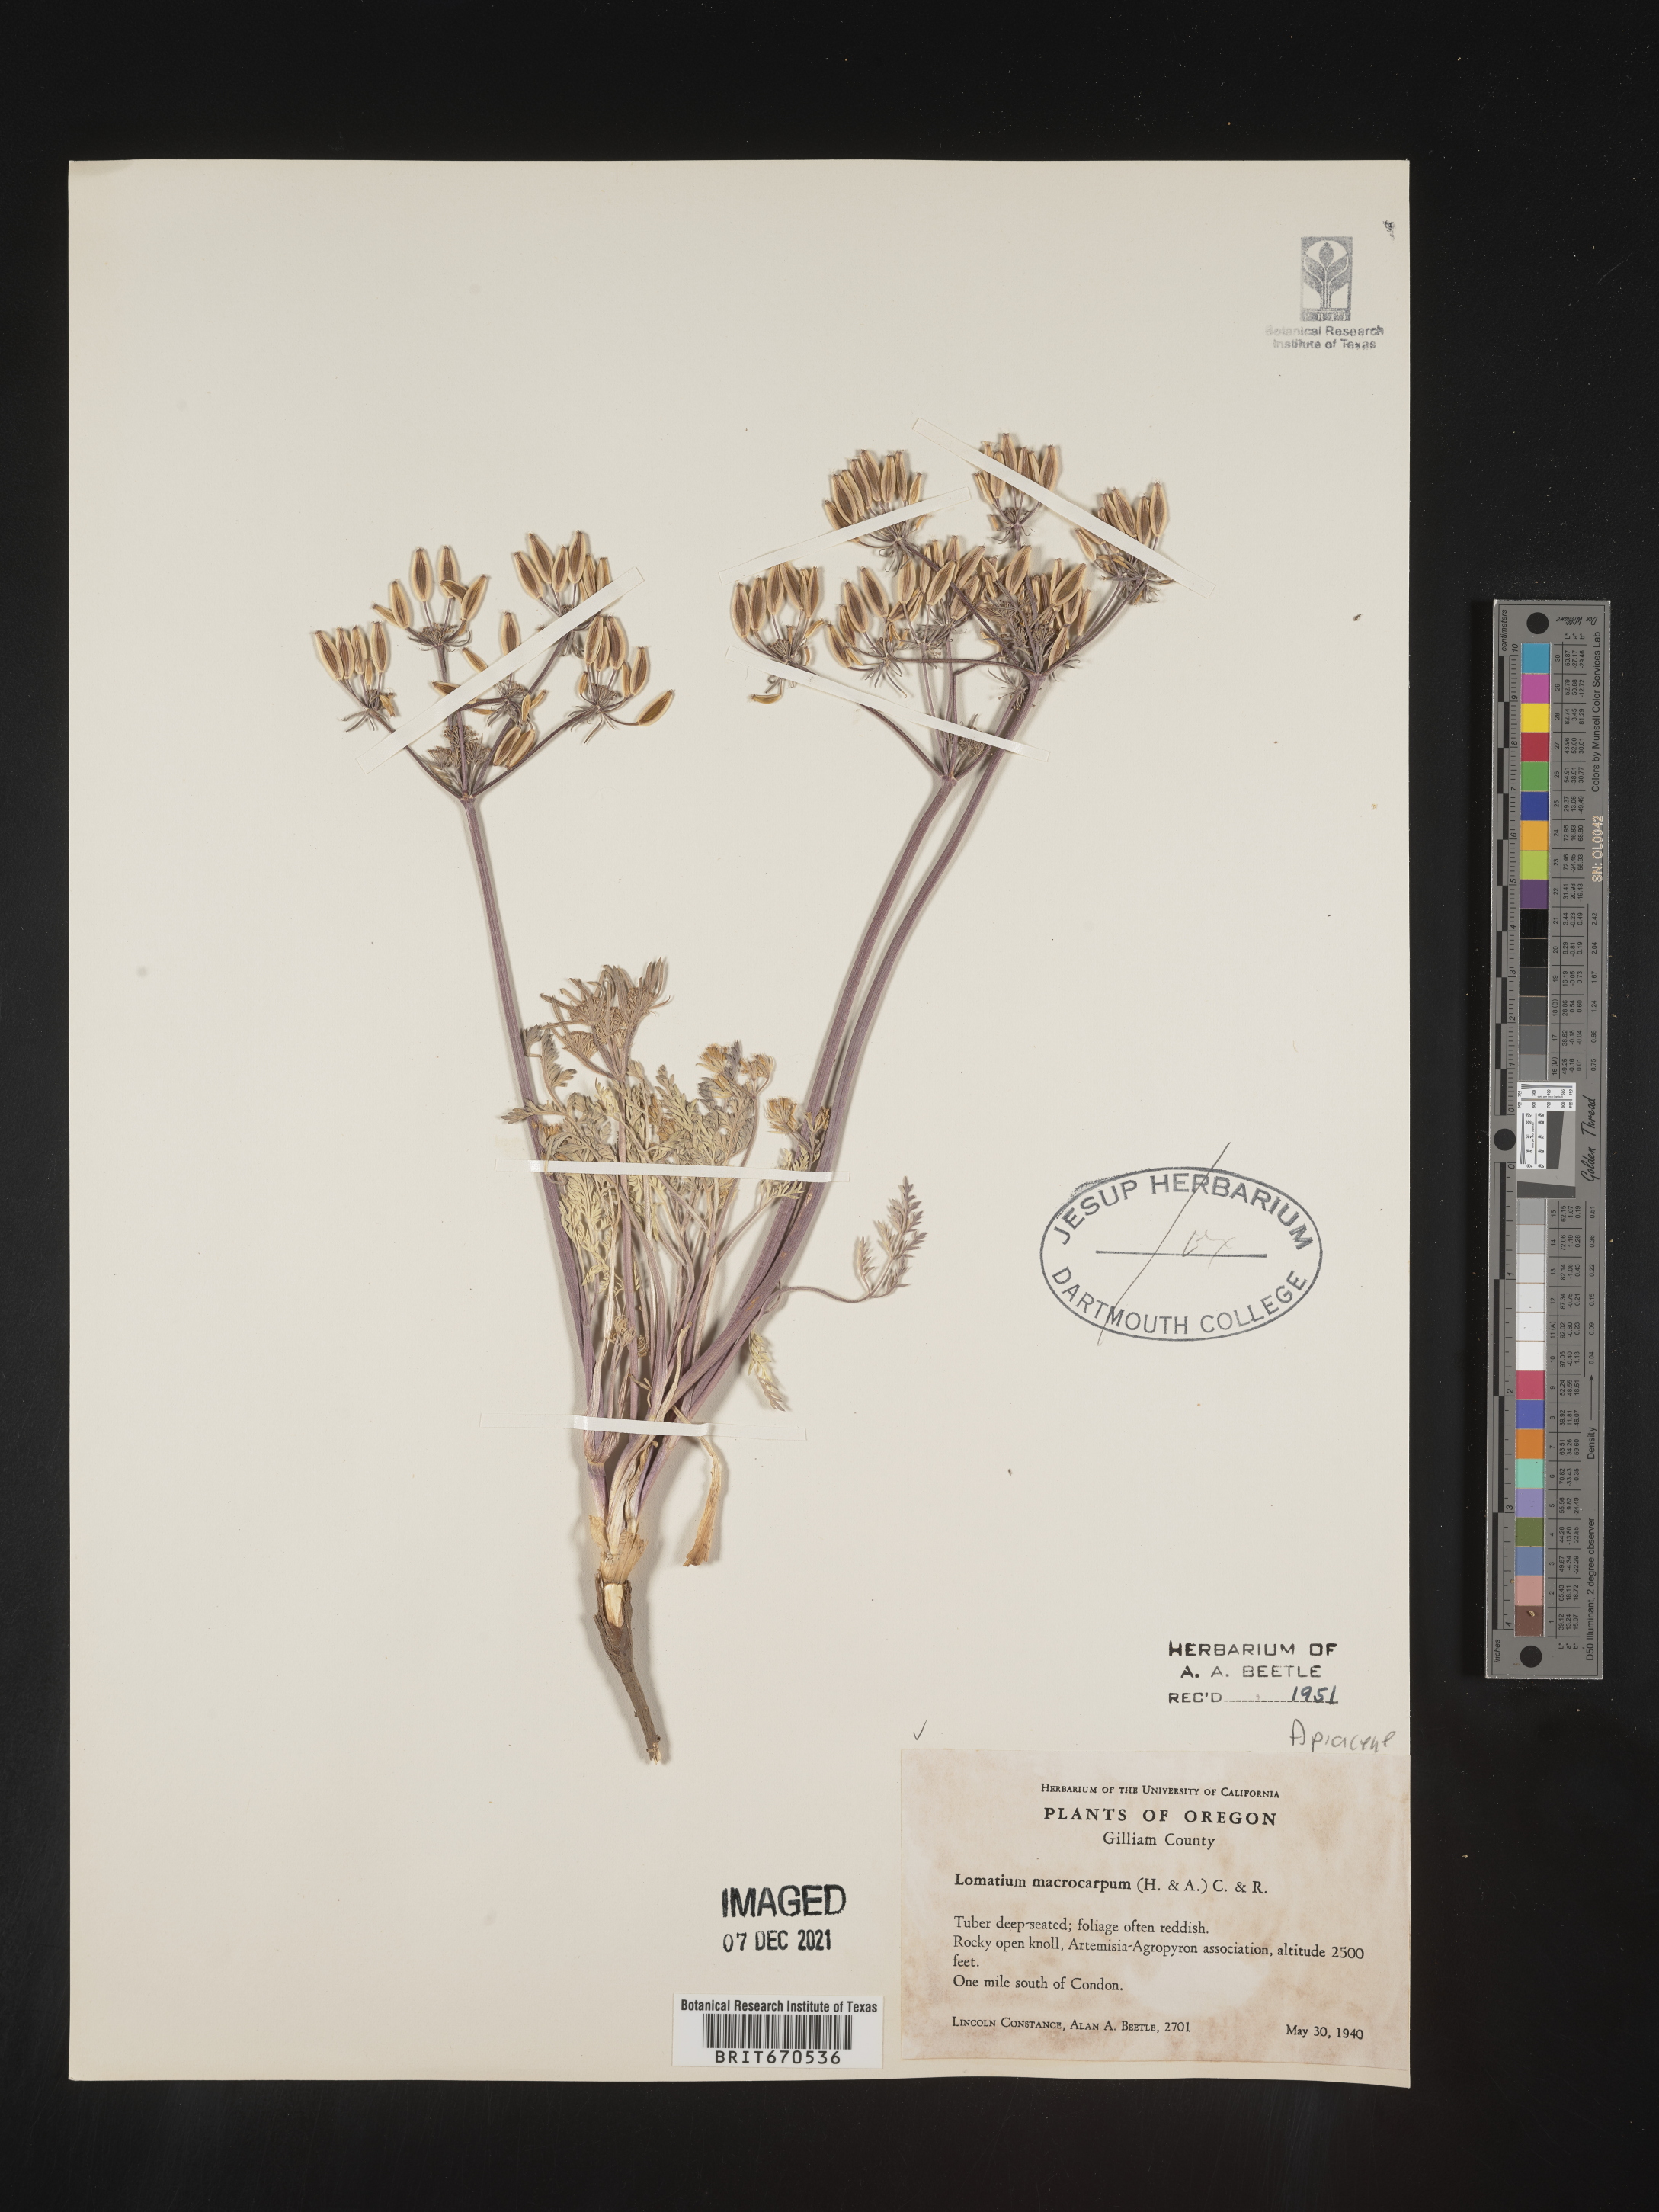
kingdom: Plantae
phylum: Tracheophyta
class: Magnoliopsida
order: Apiales
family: Apiaceae
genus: Lomatium
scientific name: Lomatium macrocarpum
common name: Big-seed biscuitroot
